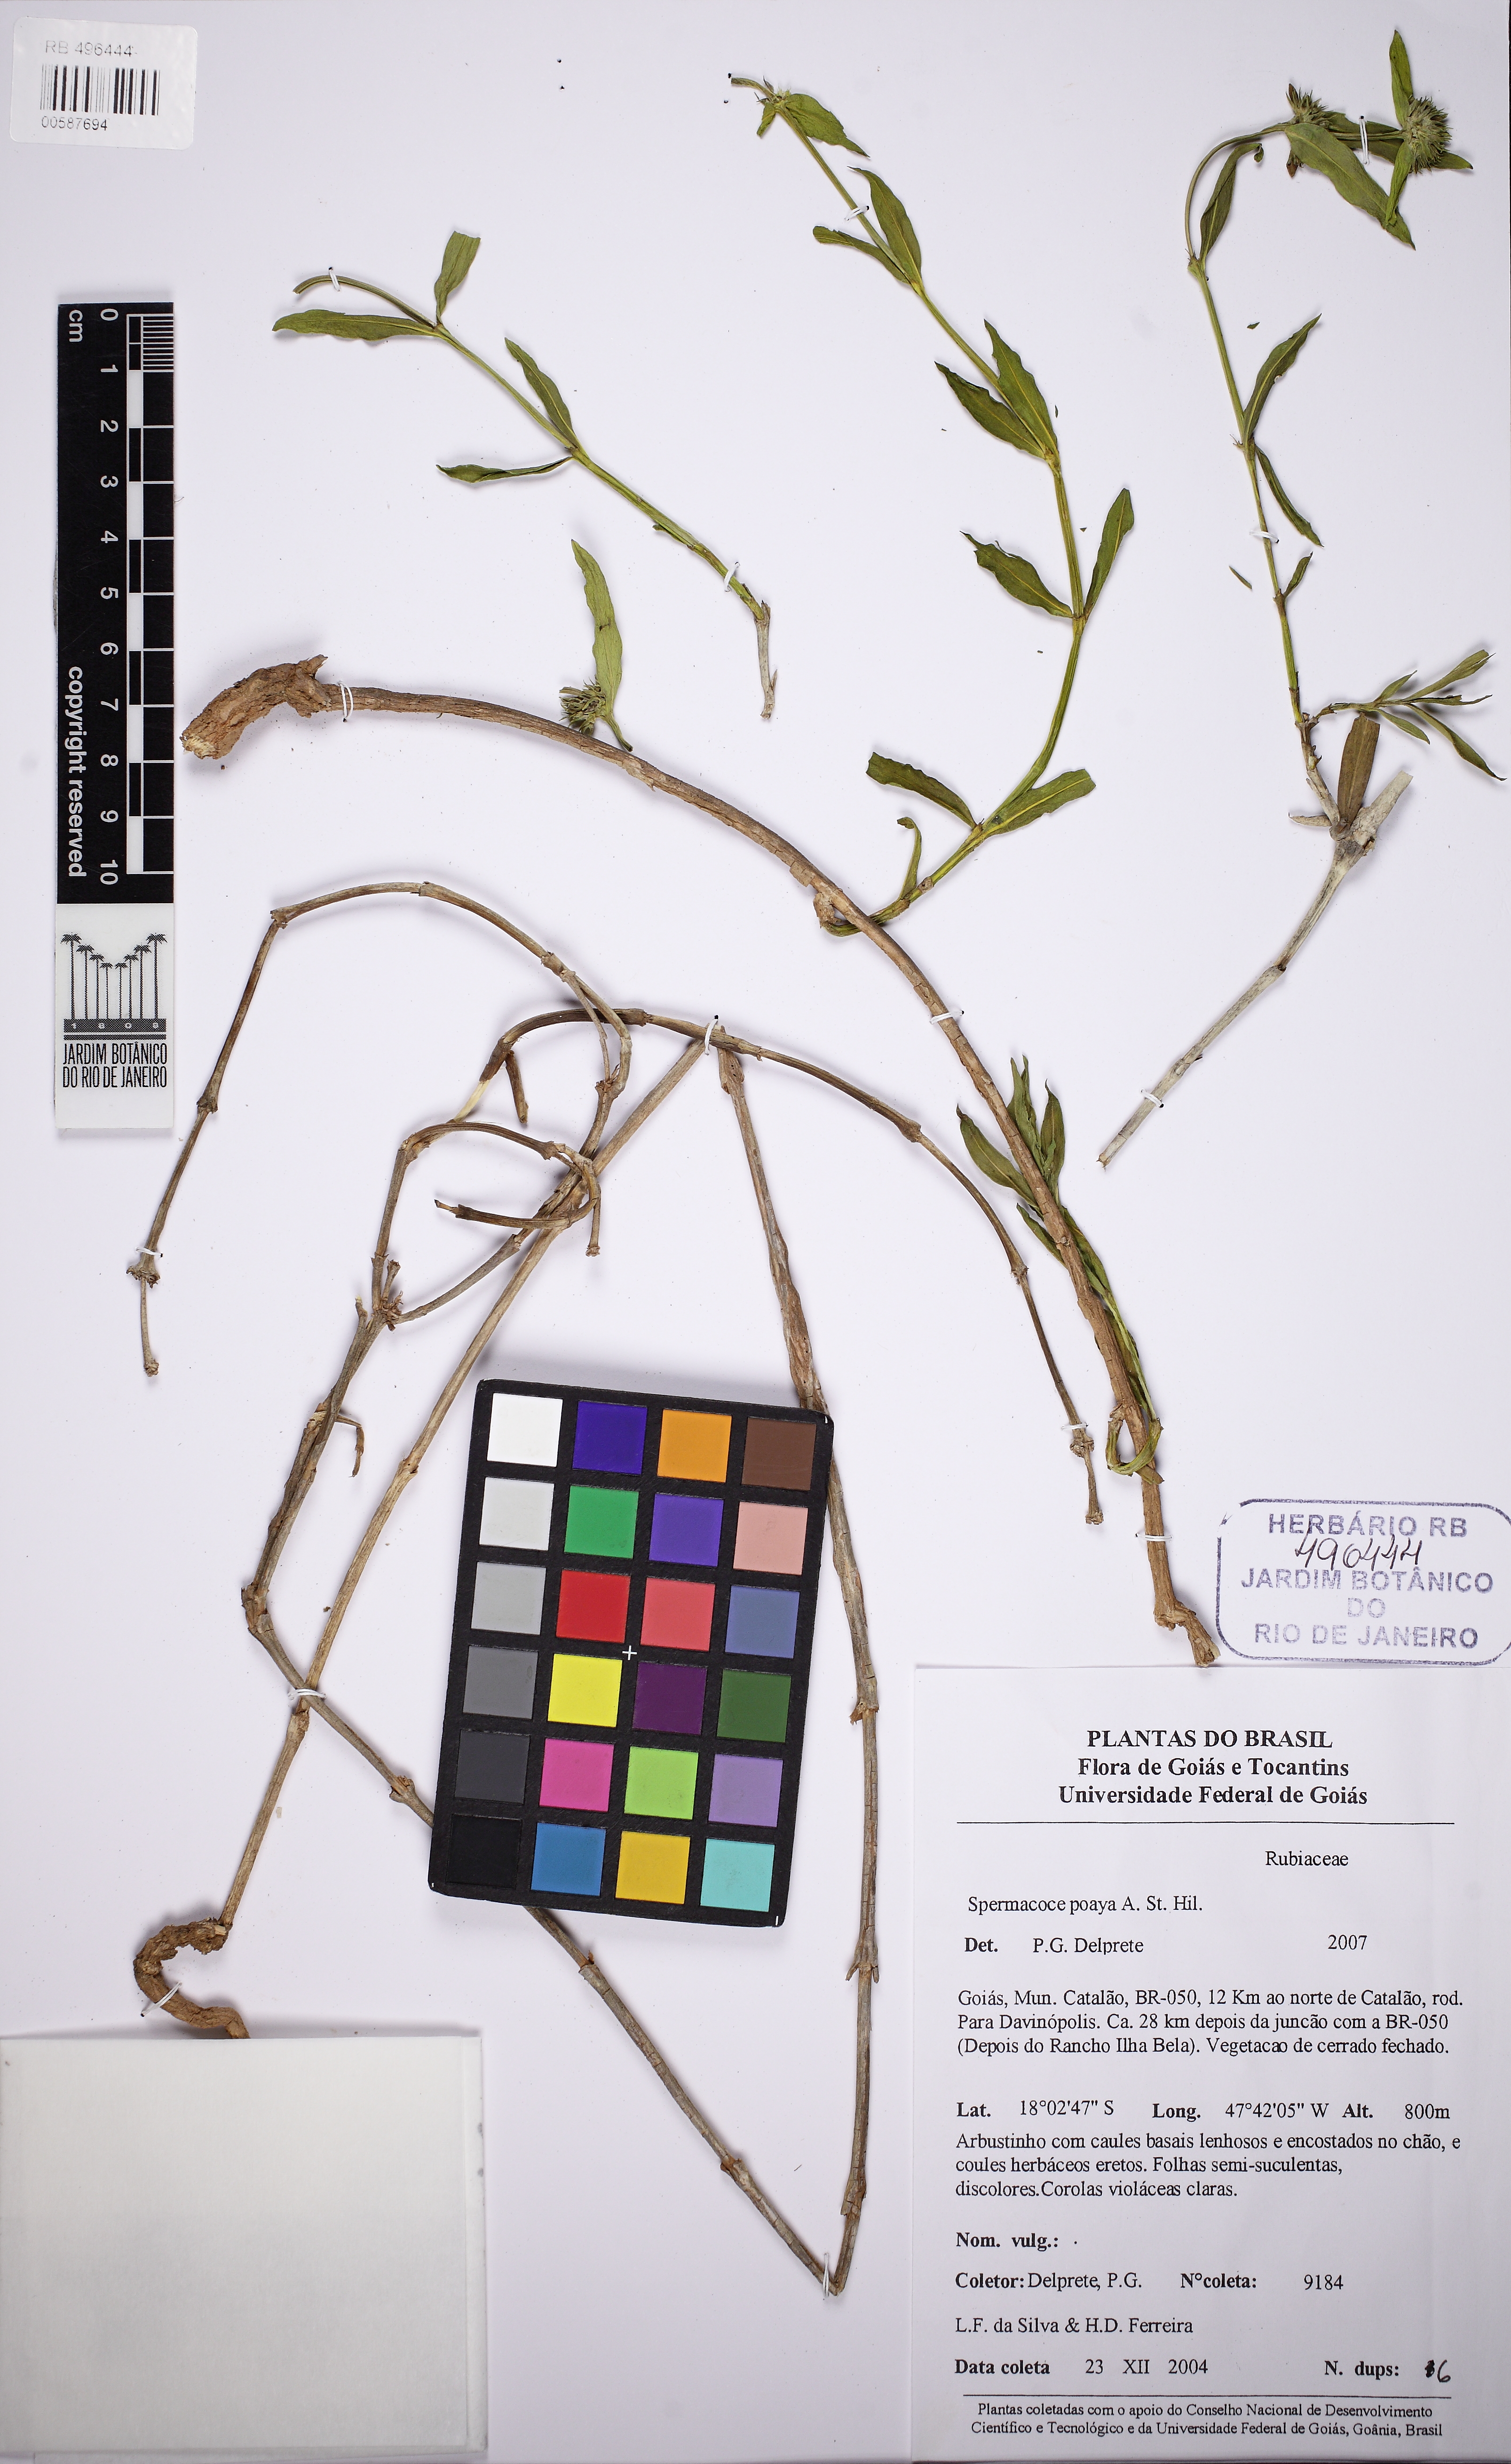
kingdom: Plantae
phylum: Tracheophyta
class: Magnoliopsida
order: Gentianales
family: Rubiaceae
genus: Spermacoce
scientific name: Spermacoce poaya
